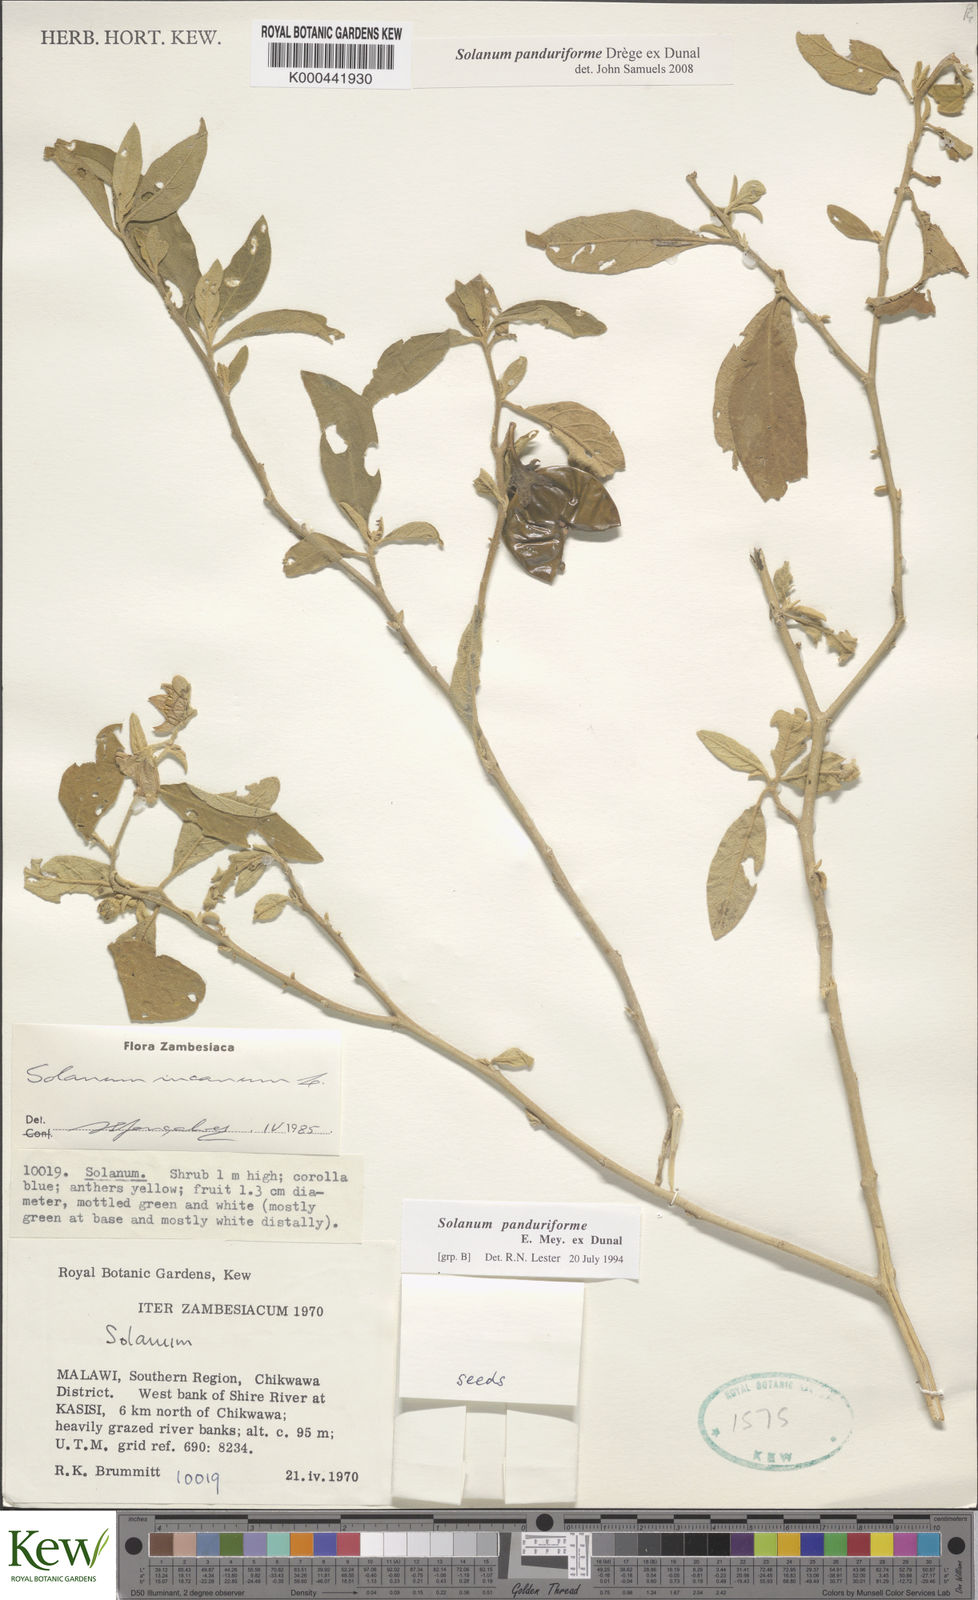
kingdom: Plantae
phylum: Tracheophyta
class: Magnoliopsida
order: Solanales
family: Solanaceae
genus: Solanum
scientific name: Solanum campylacanthum
